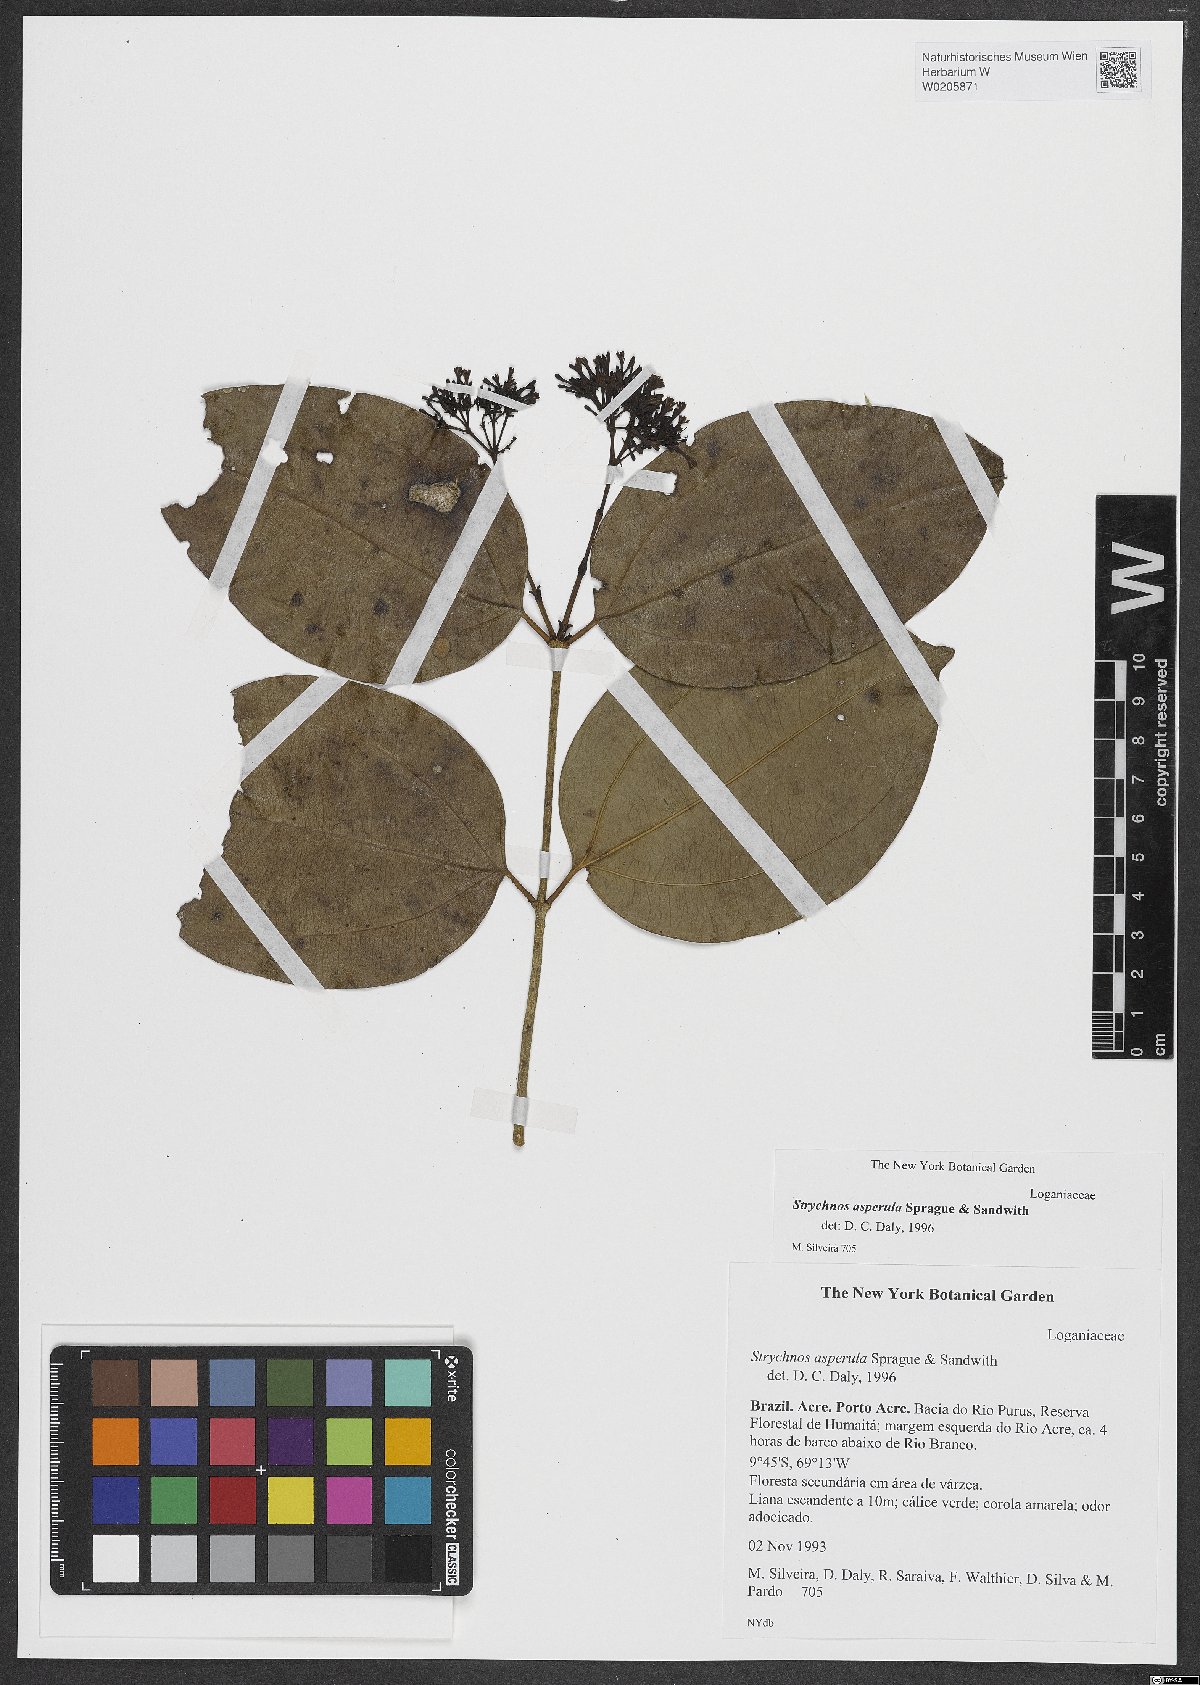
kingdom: Plantae
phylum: Tracheophyta
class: Magnoliopsida
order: Gentianales
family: Loganiaceae
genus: Strychnos
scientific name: Strychnos asperula
